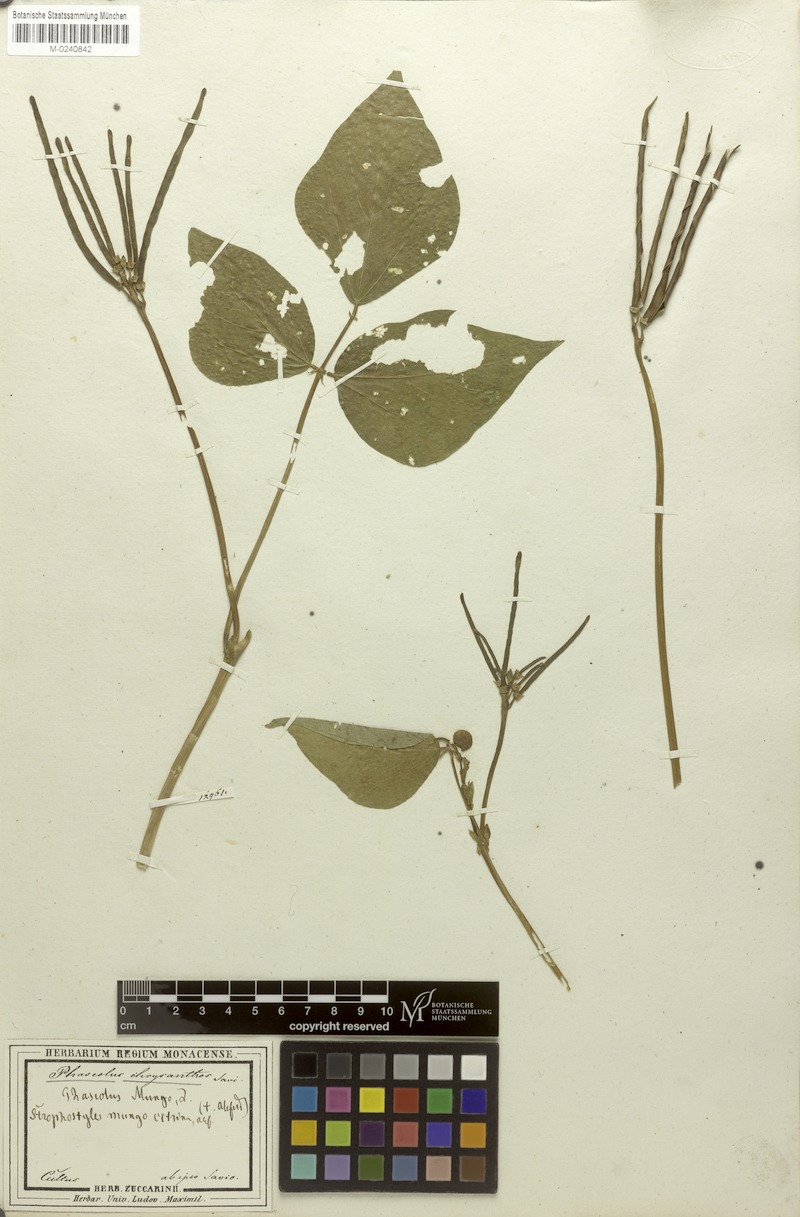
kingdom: Plantae
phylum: Tracheophyta
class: Magnoliopsida
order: Fabales
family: Fabaceae
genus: Vigna
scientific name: Vigna angularis
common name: Adzuki bean
